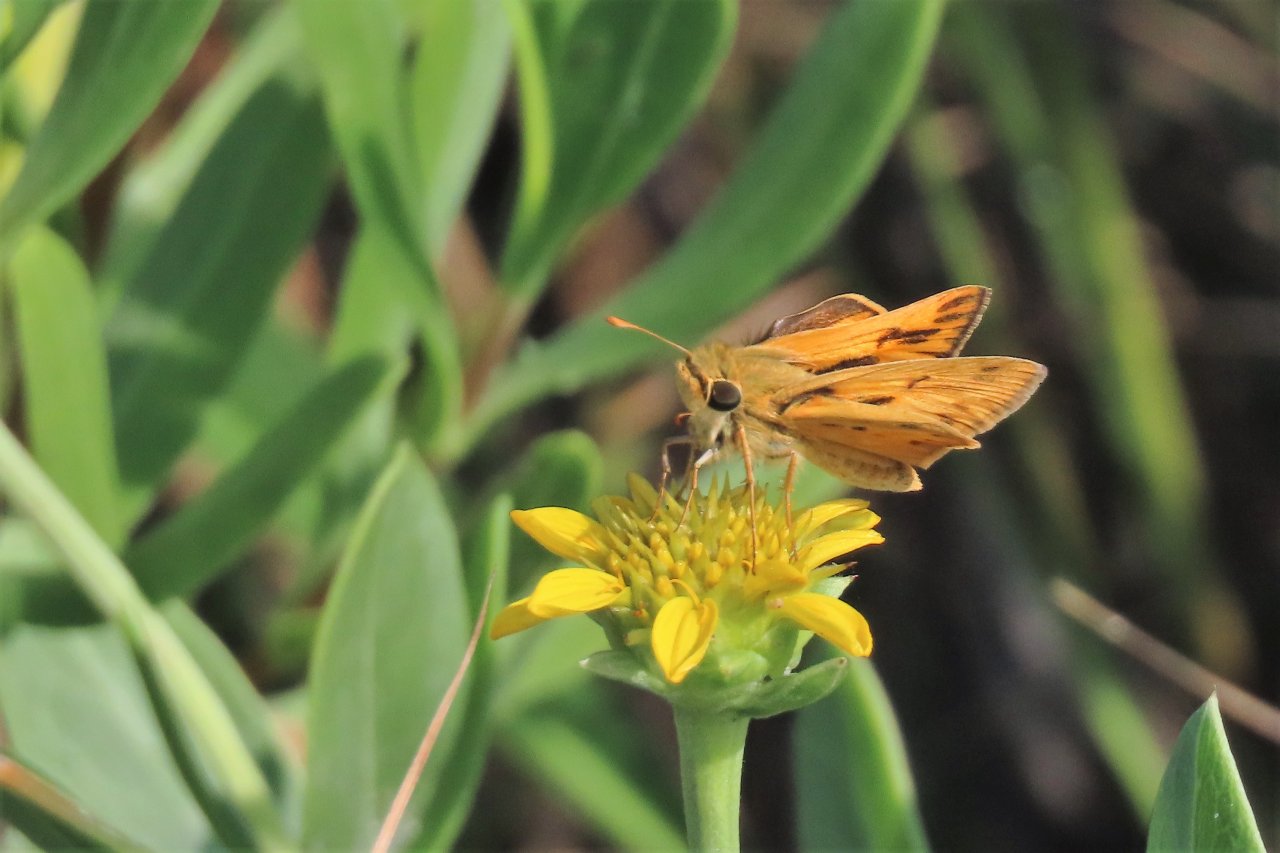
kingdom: Animalia
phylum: Arthropoda
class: Insecta
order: Lepidoptera
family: Hesperiidae
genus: Hylephila
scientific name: Hylephila phyleus
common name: Fiery Skipper
